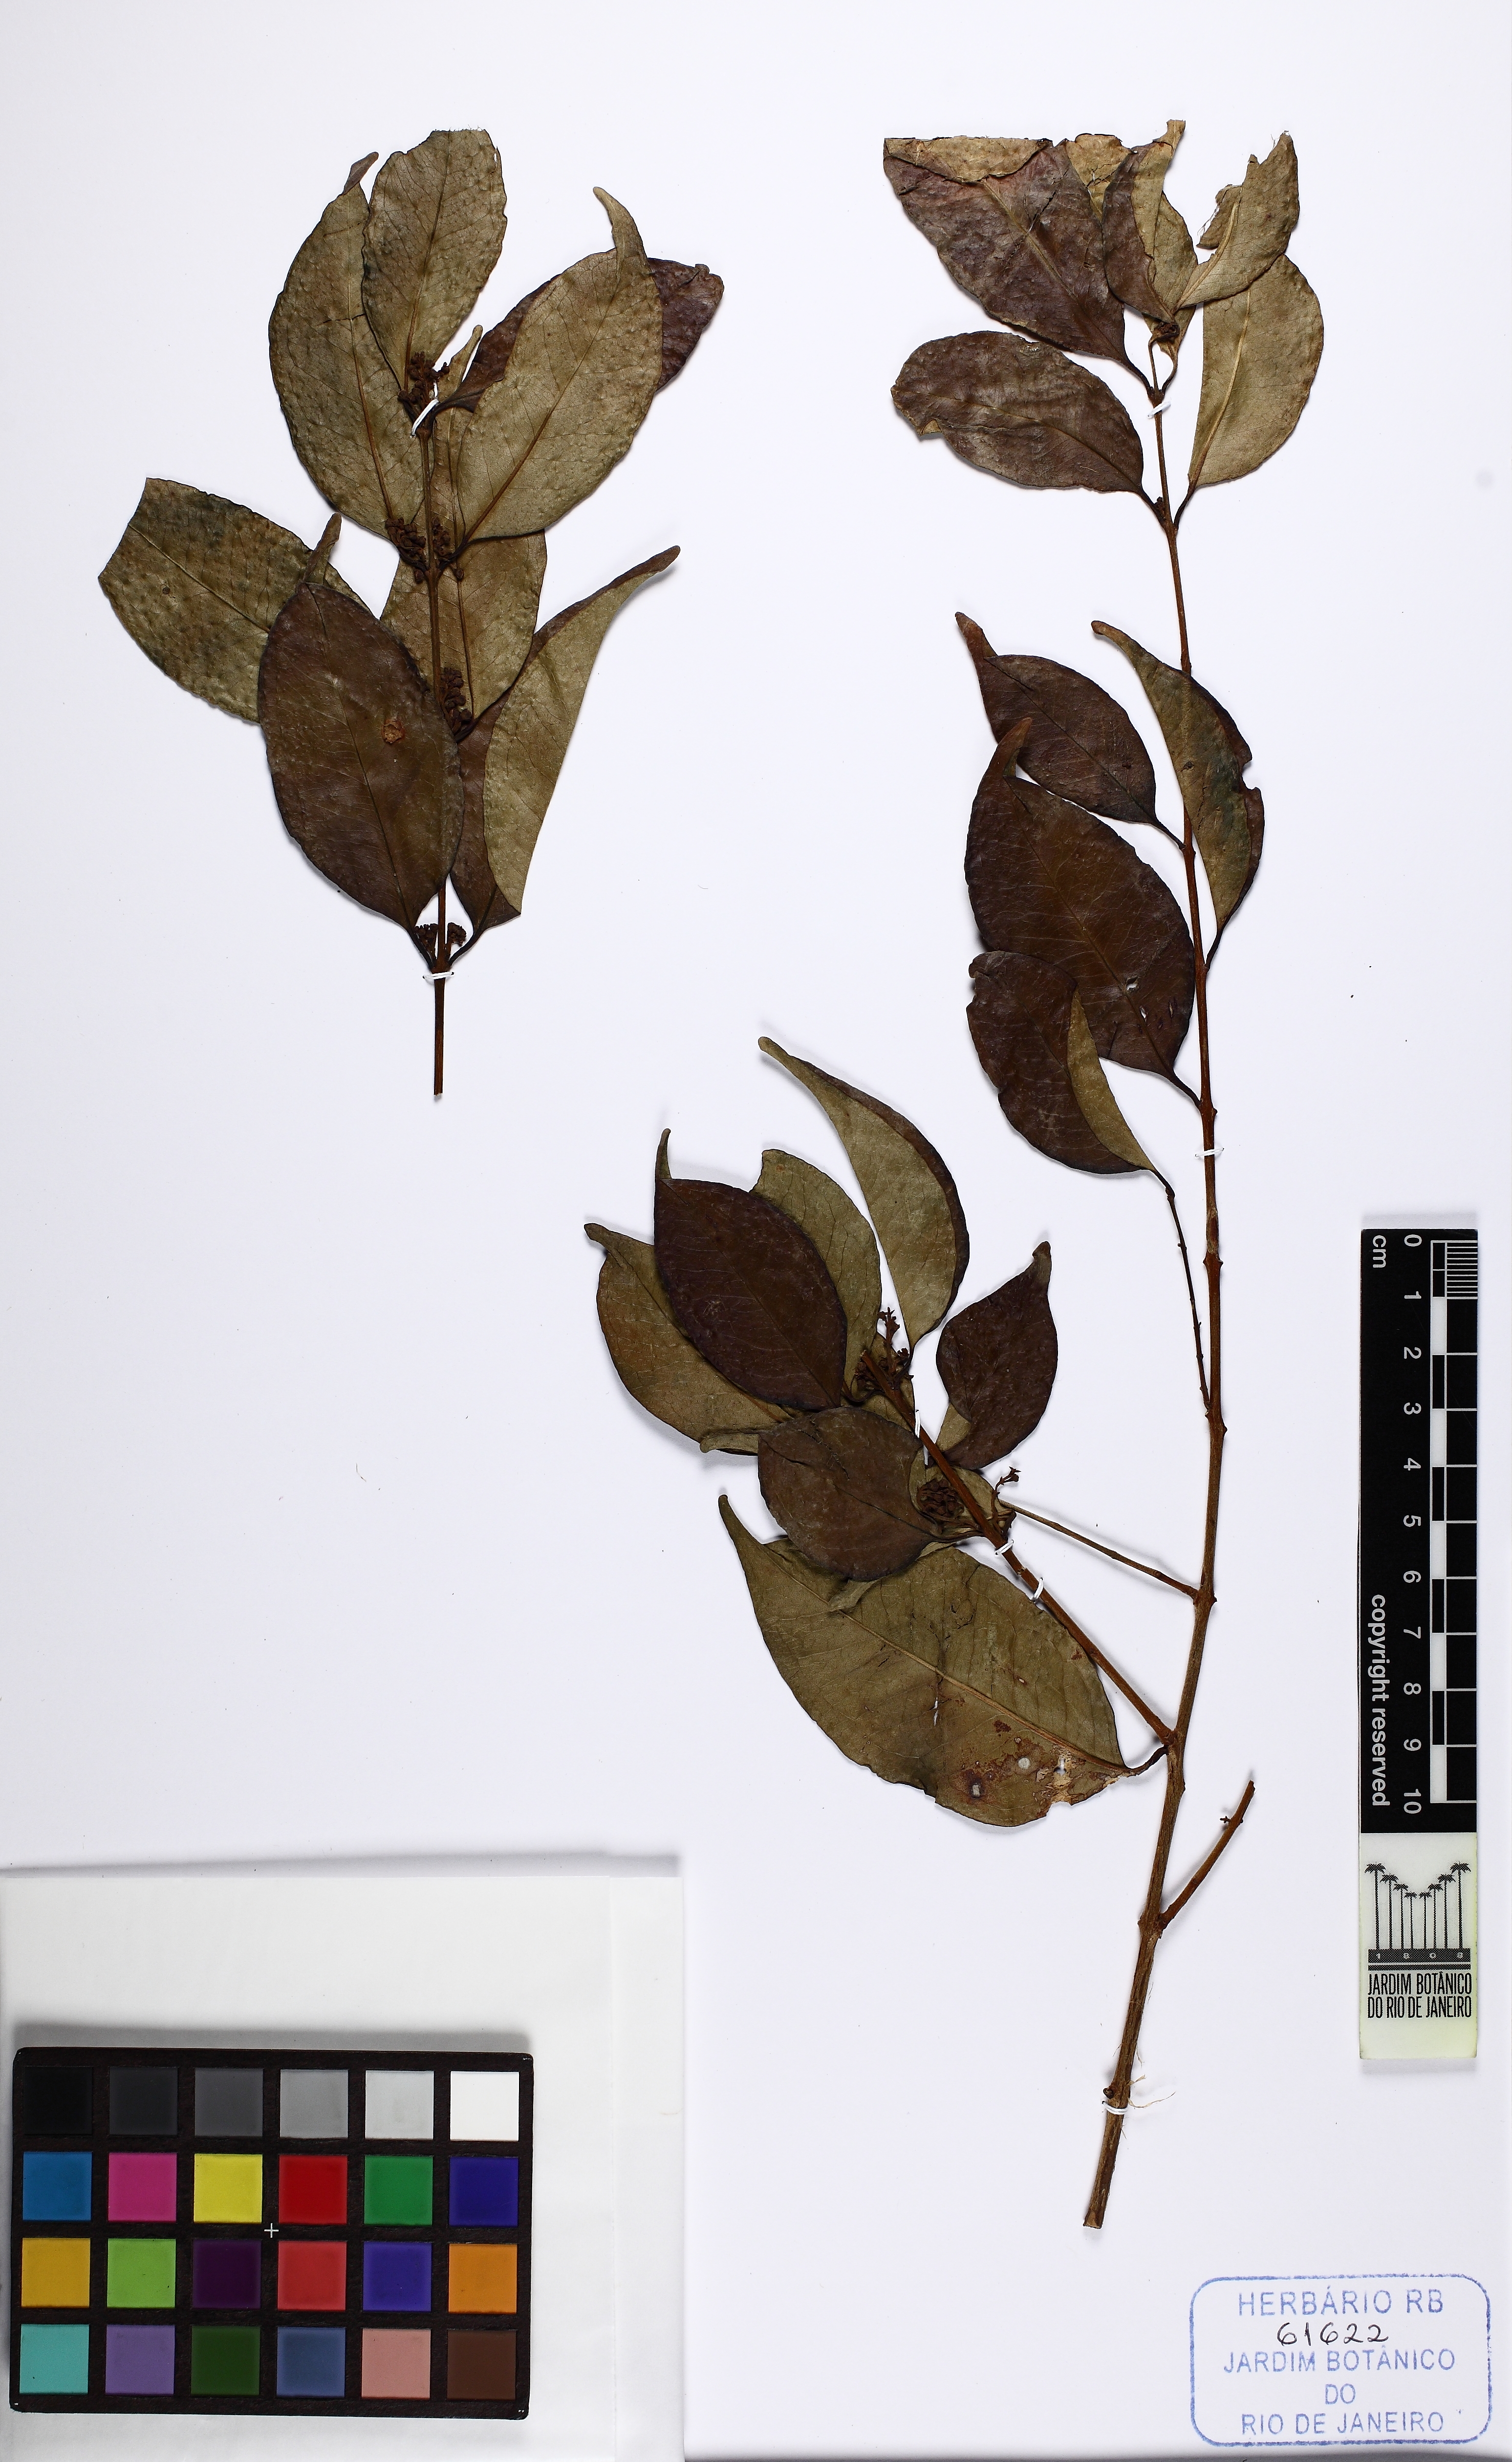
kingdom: Plantae
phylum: Tracheophyta
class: Magnoliopsida
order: Myrtales
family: Myrtaceae
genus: Eugenia
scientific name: Eugenia candolleana
